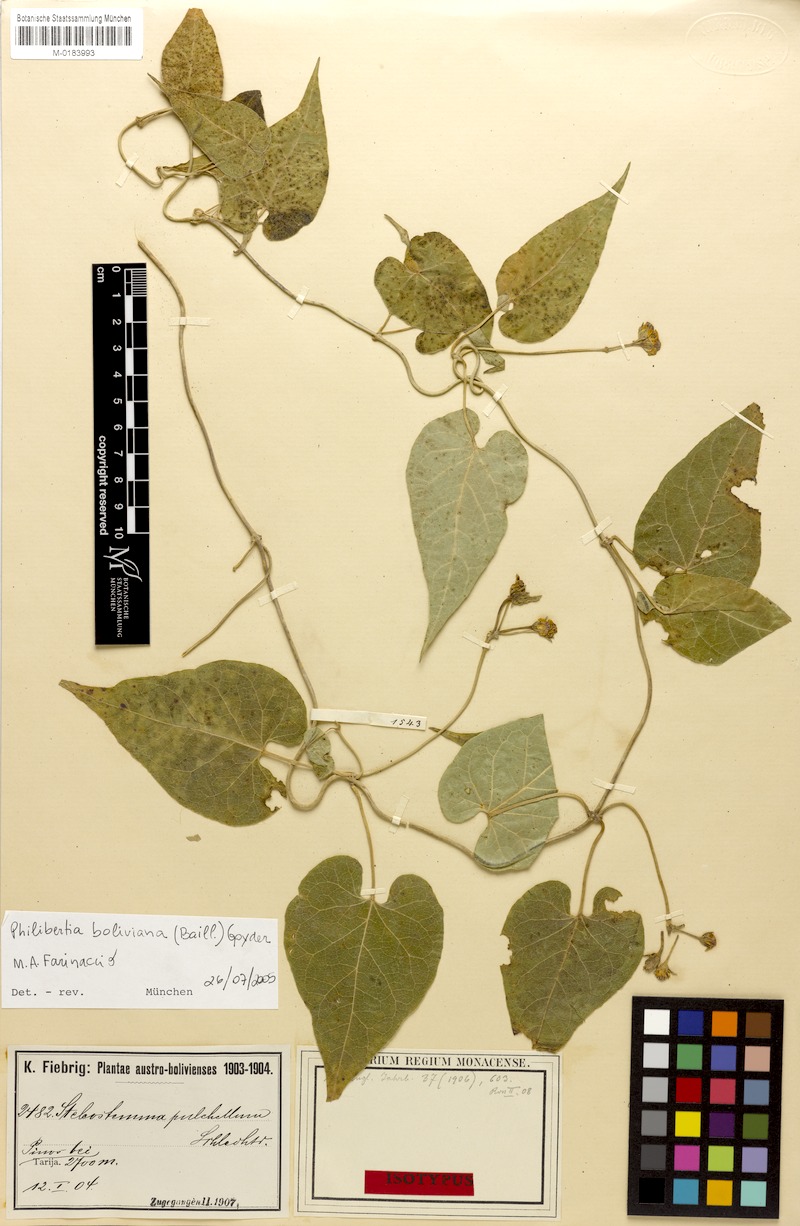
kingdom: Plantae
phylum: Tracheophyta
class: Magnoliopsida
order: Gentianales
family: Apocynaceae
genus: Philibertia
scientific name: Philibertia boliviana
